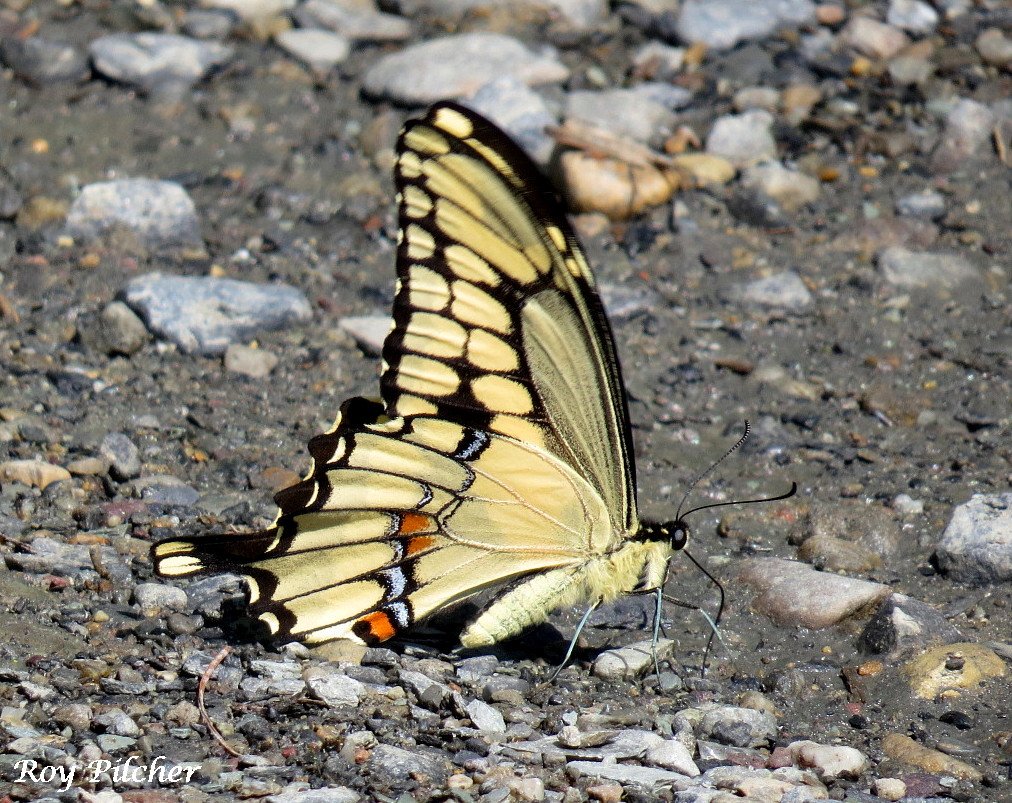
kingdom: Animalia
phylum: Arthropoda
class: Insecta
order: Lepidoptera
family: Papilionidae
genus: Papilio
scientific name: Papilio cresphontes
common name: Eastern Giant Swallowtail
